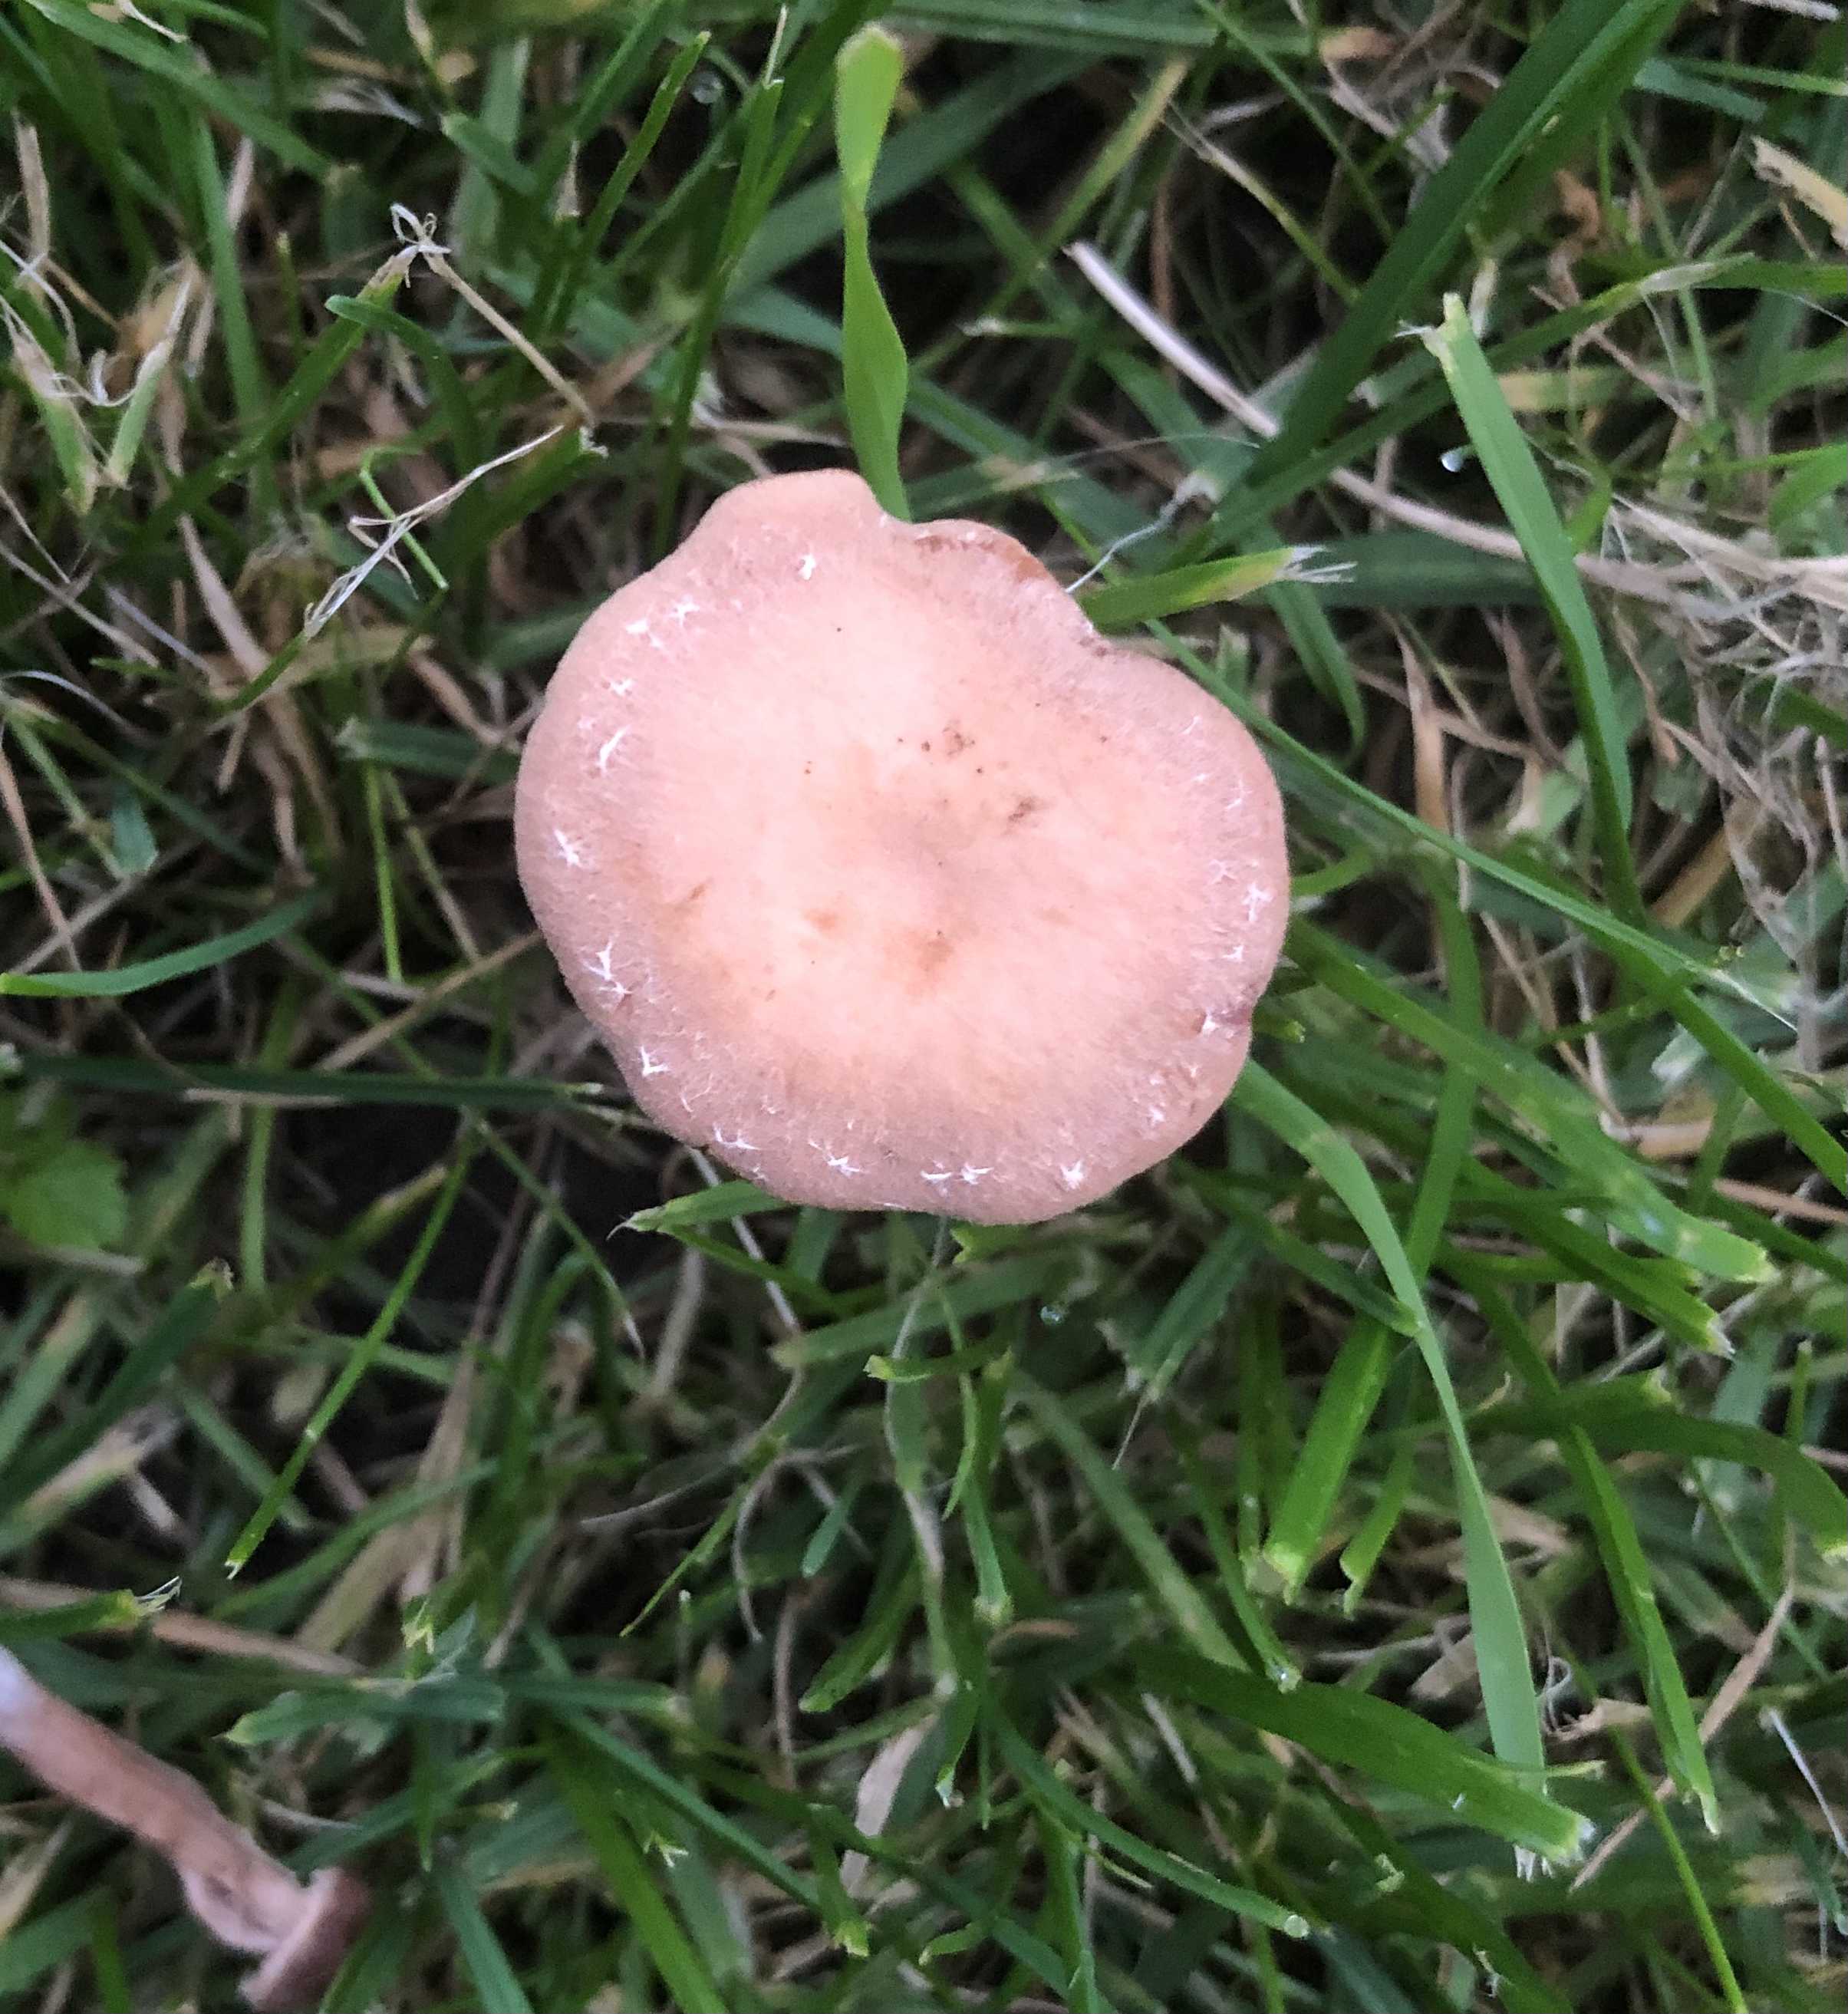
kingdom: Fungi
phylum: Basidiomycota
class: Agaricomycetes
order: Agaricales
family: Tubariaceae
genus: Tubaria
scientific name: Tubaria
